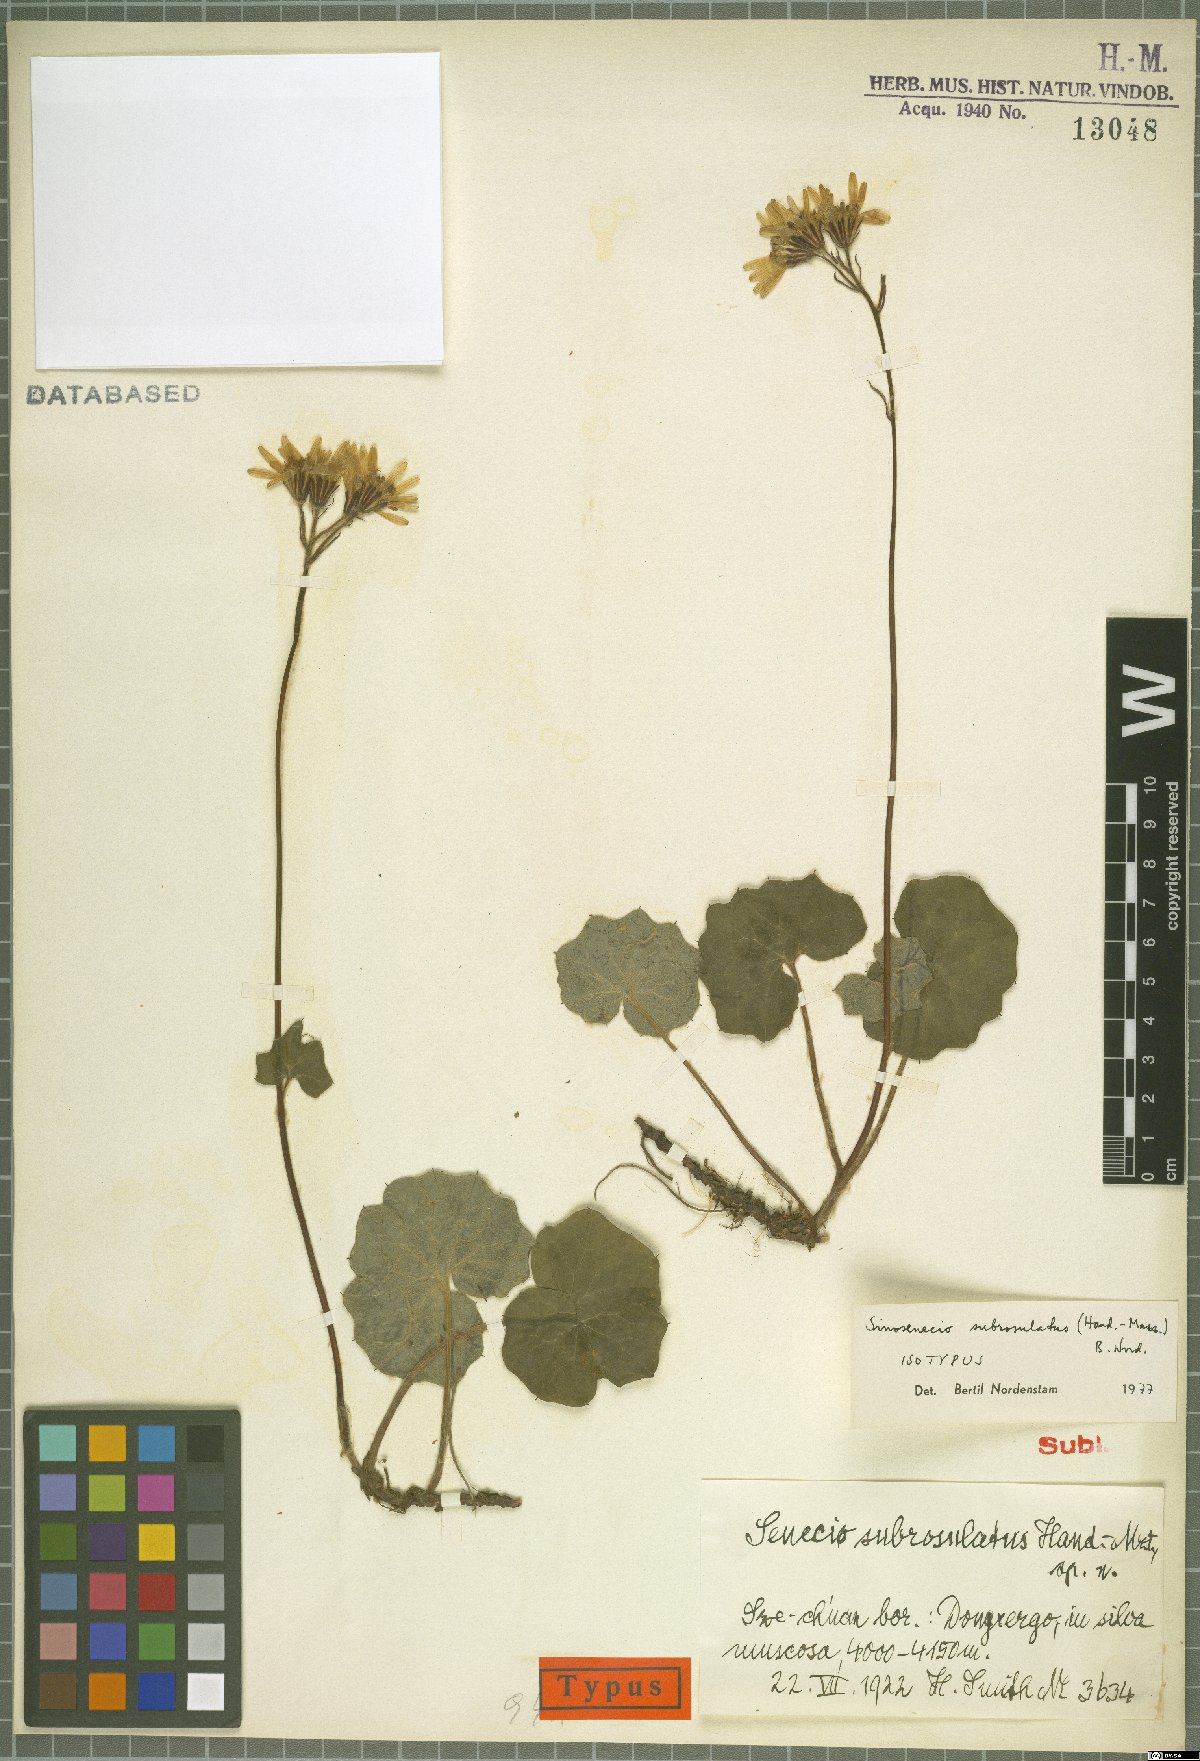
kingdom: Plantae
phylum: Tracheophyta
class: Magnoliopsida
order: Asterales
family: Asteraceae
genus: Sinosenecio
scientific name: Sinosenecio subrosulatus
